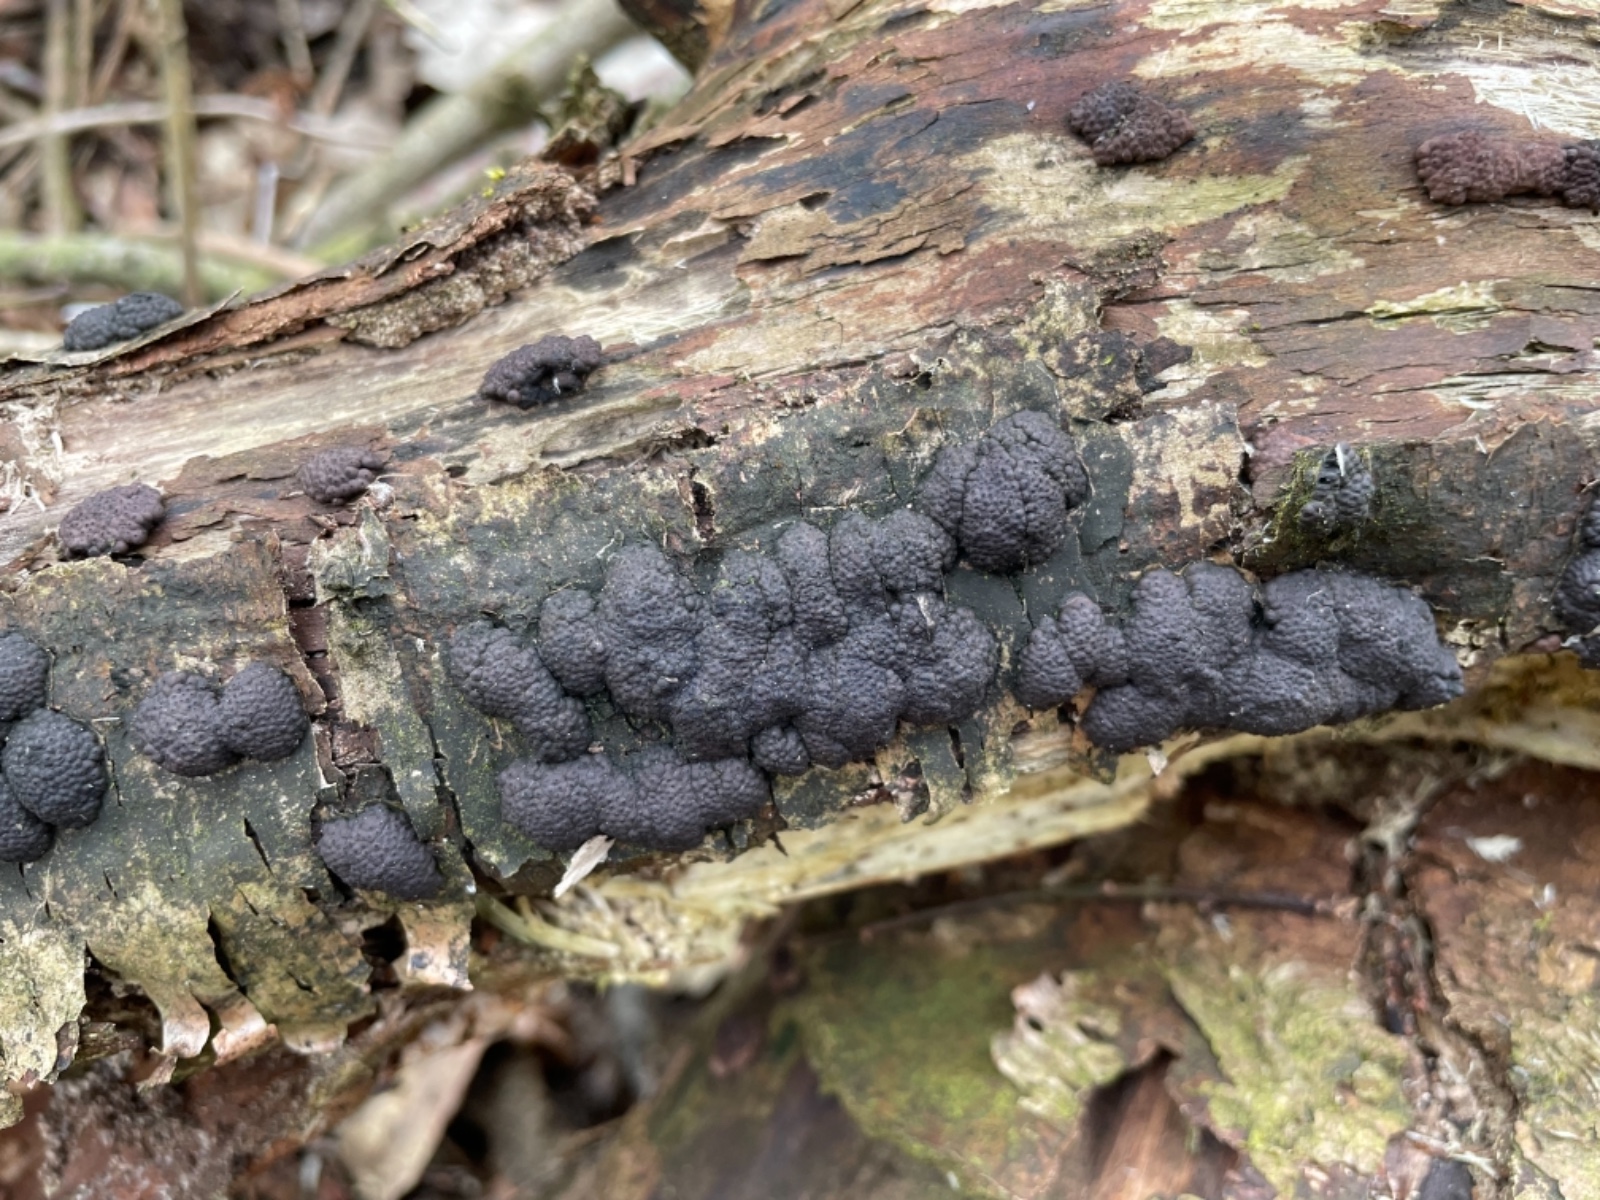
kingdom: Fungi
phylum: Ascomycota
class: Sordariomycetes
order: Xylariales
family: Hypoxylaceae
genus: Jackrogersella
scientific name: Jackrogersella
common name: kulbær
